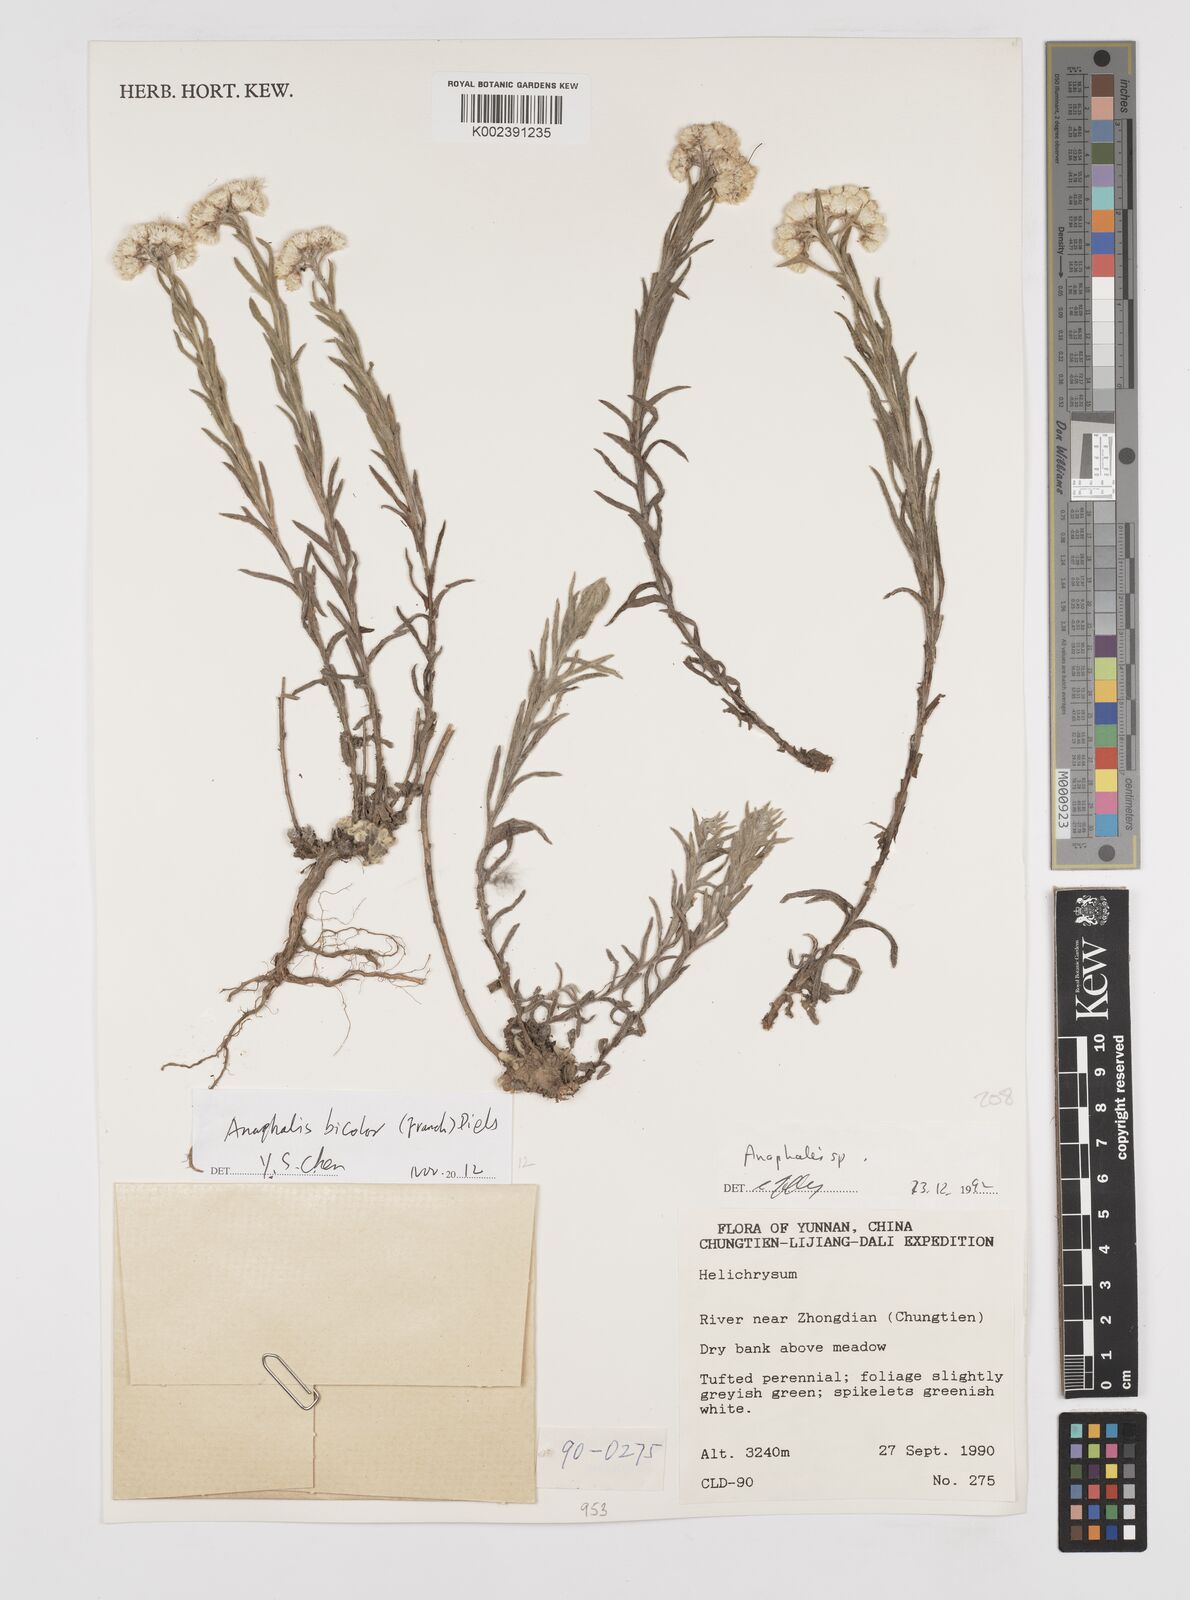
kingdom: Plantae
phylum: Tracheophyta
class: Magnoliopsida
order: Asterales
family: Asteraceae
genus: Anaphalis
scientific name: Anaphalis bicolor
